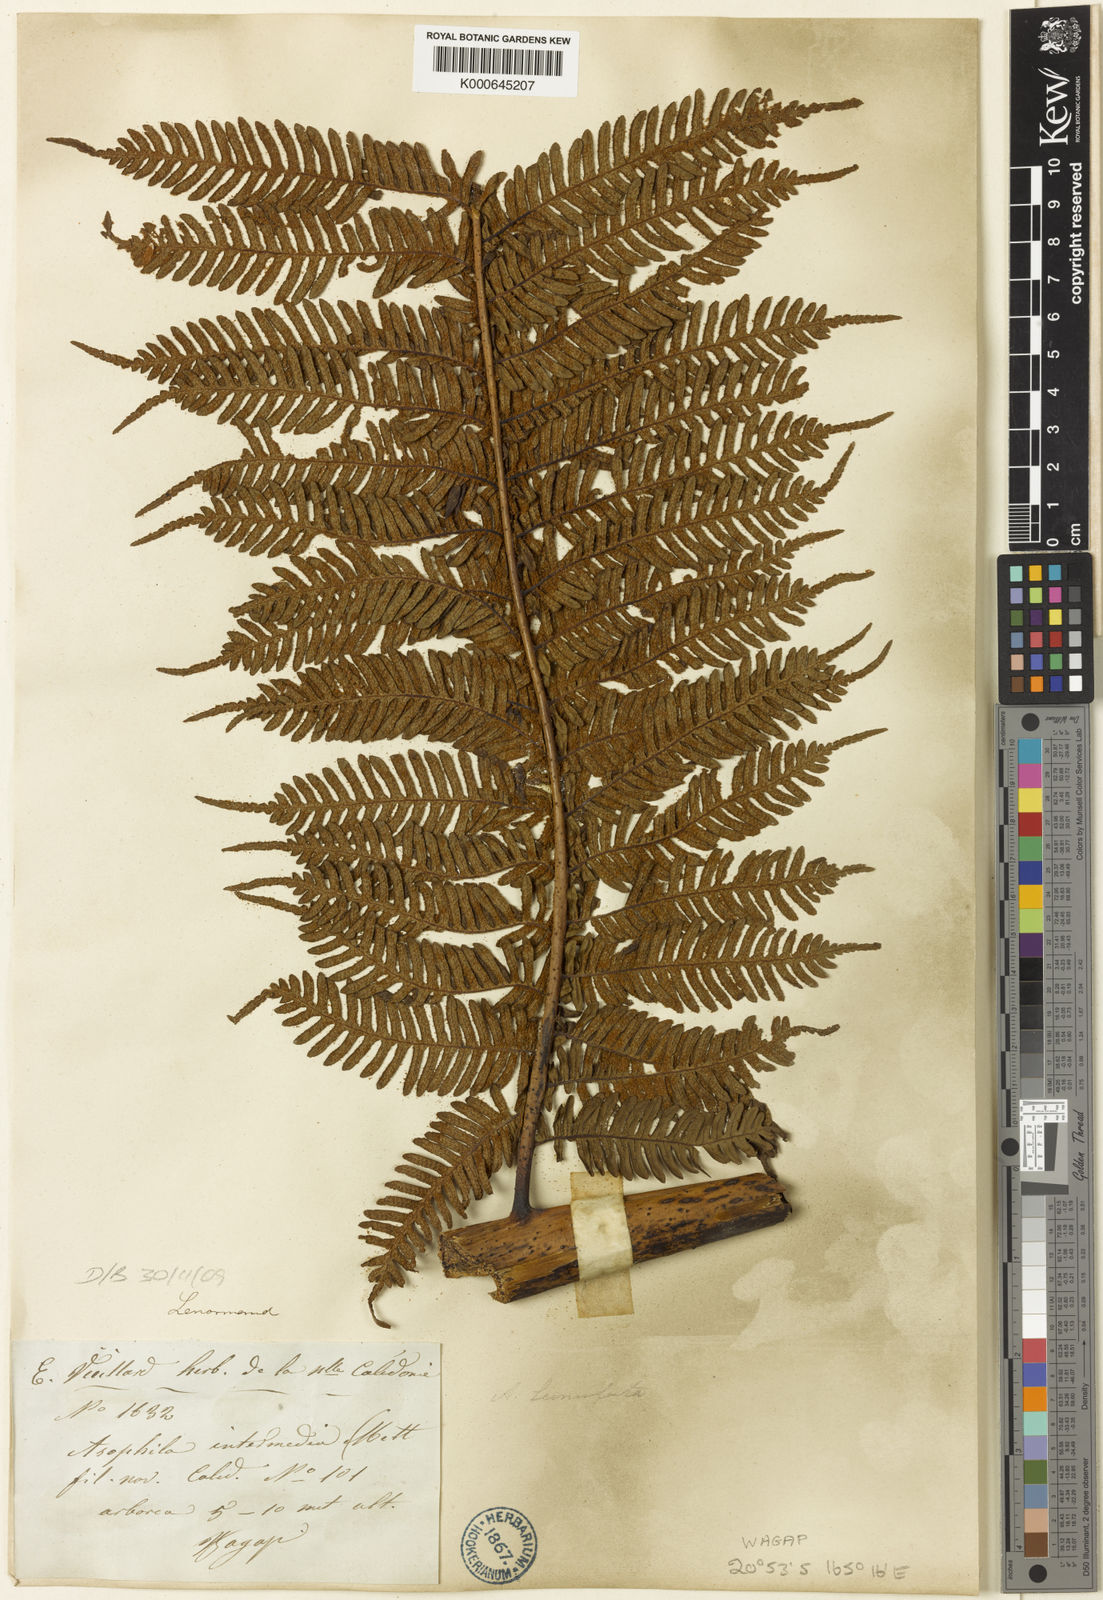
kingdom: Plantae
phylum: Tracheophyta
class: Polypodiopsida
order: Cyatheales
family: Cyatheaceae
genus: Sphaeropteris
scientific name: Sphaeropteris intermedia
